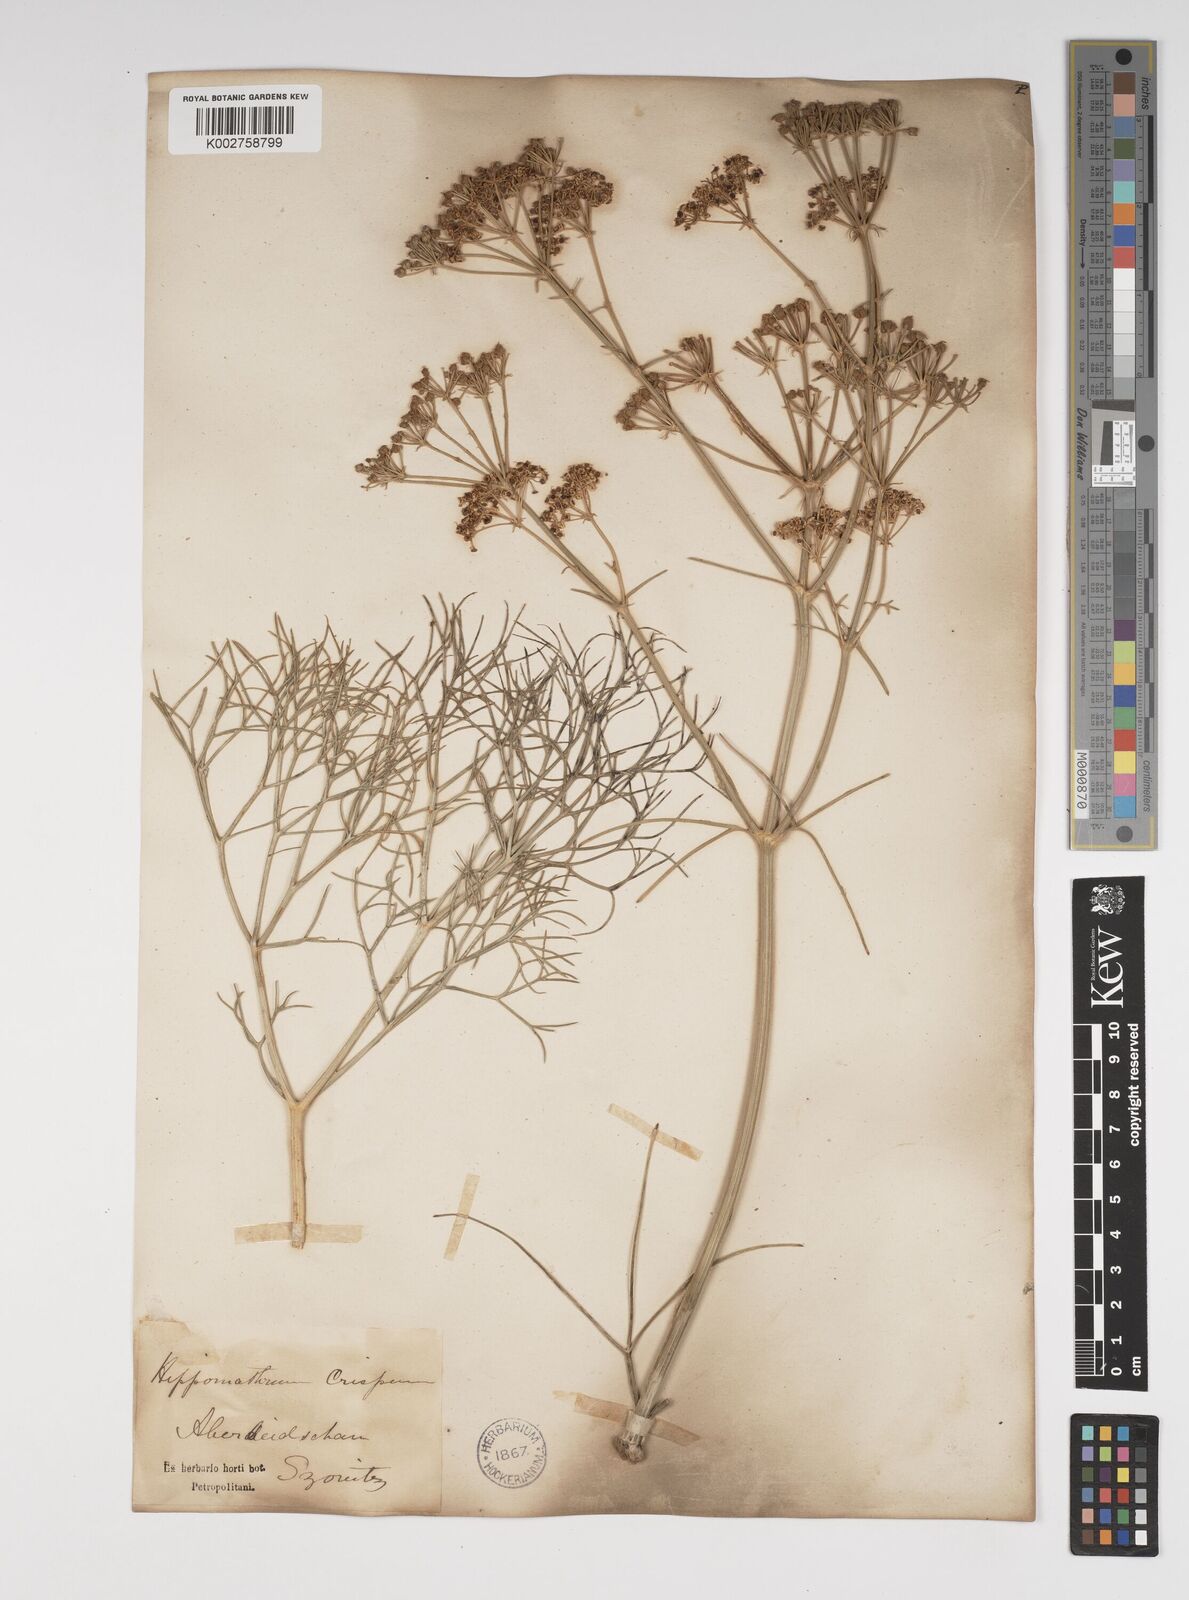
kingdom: Plantae
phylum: Tracheophyta
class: Magnoliopsida
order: Apiales
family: Apiaceae
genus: Bilacunaria
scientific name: Bilacunaria microcarpa
